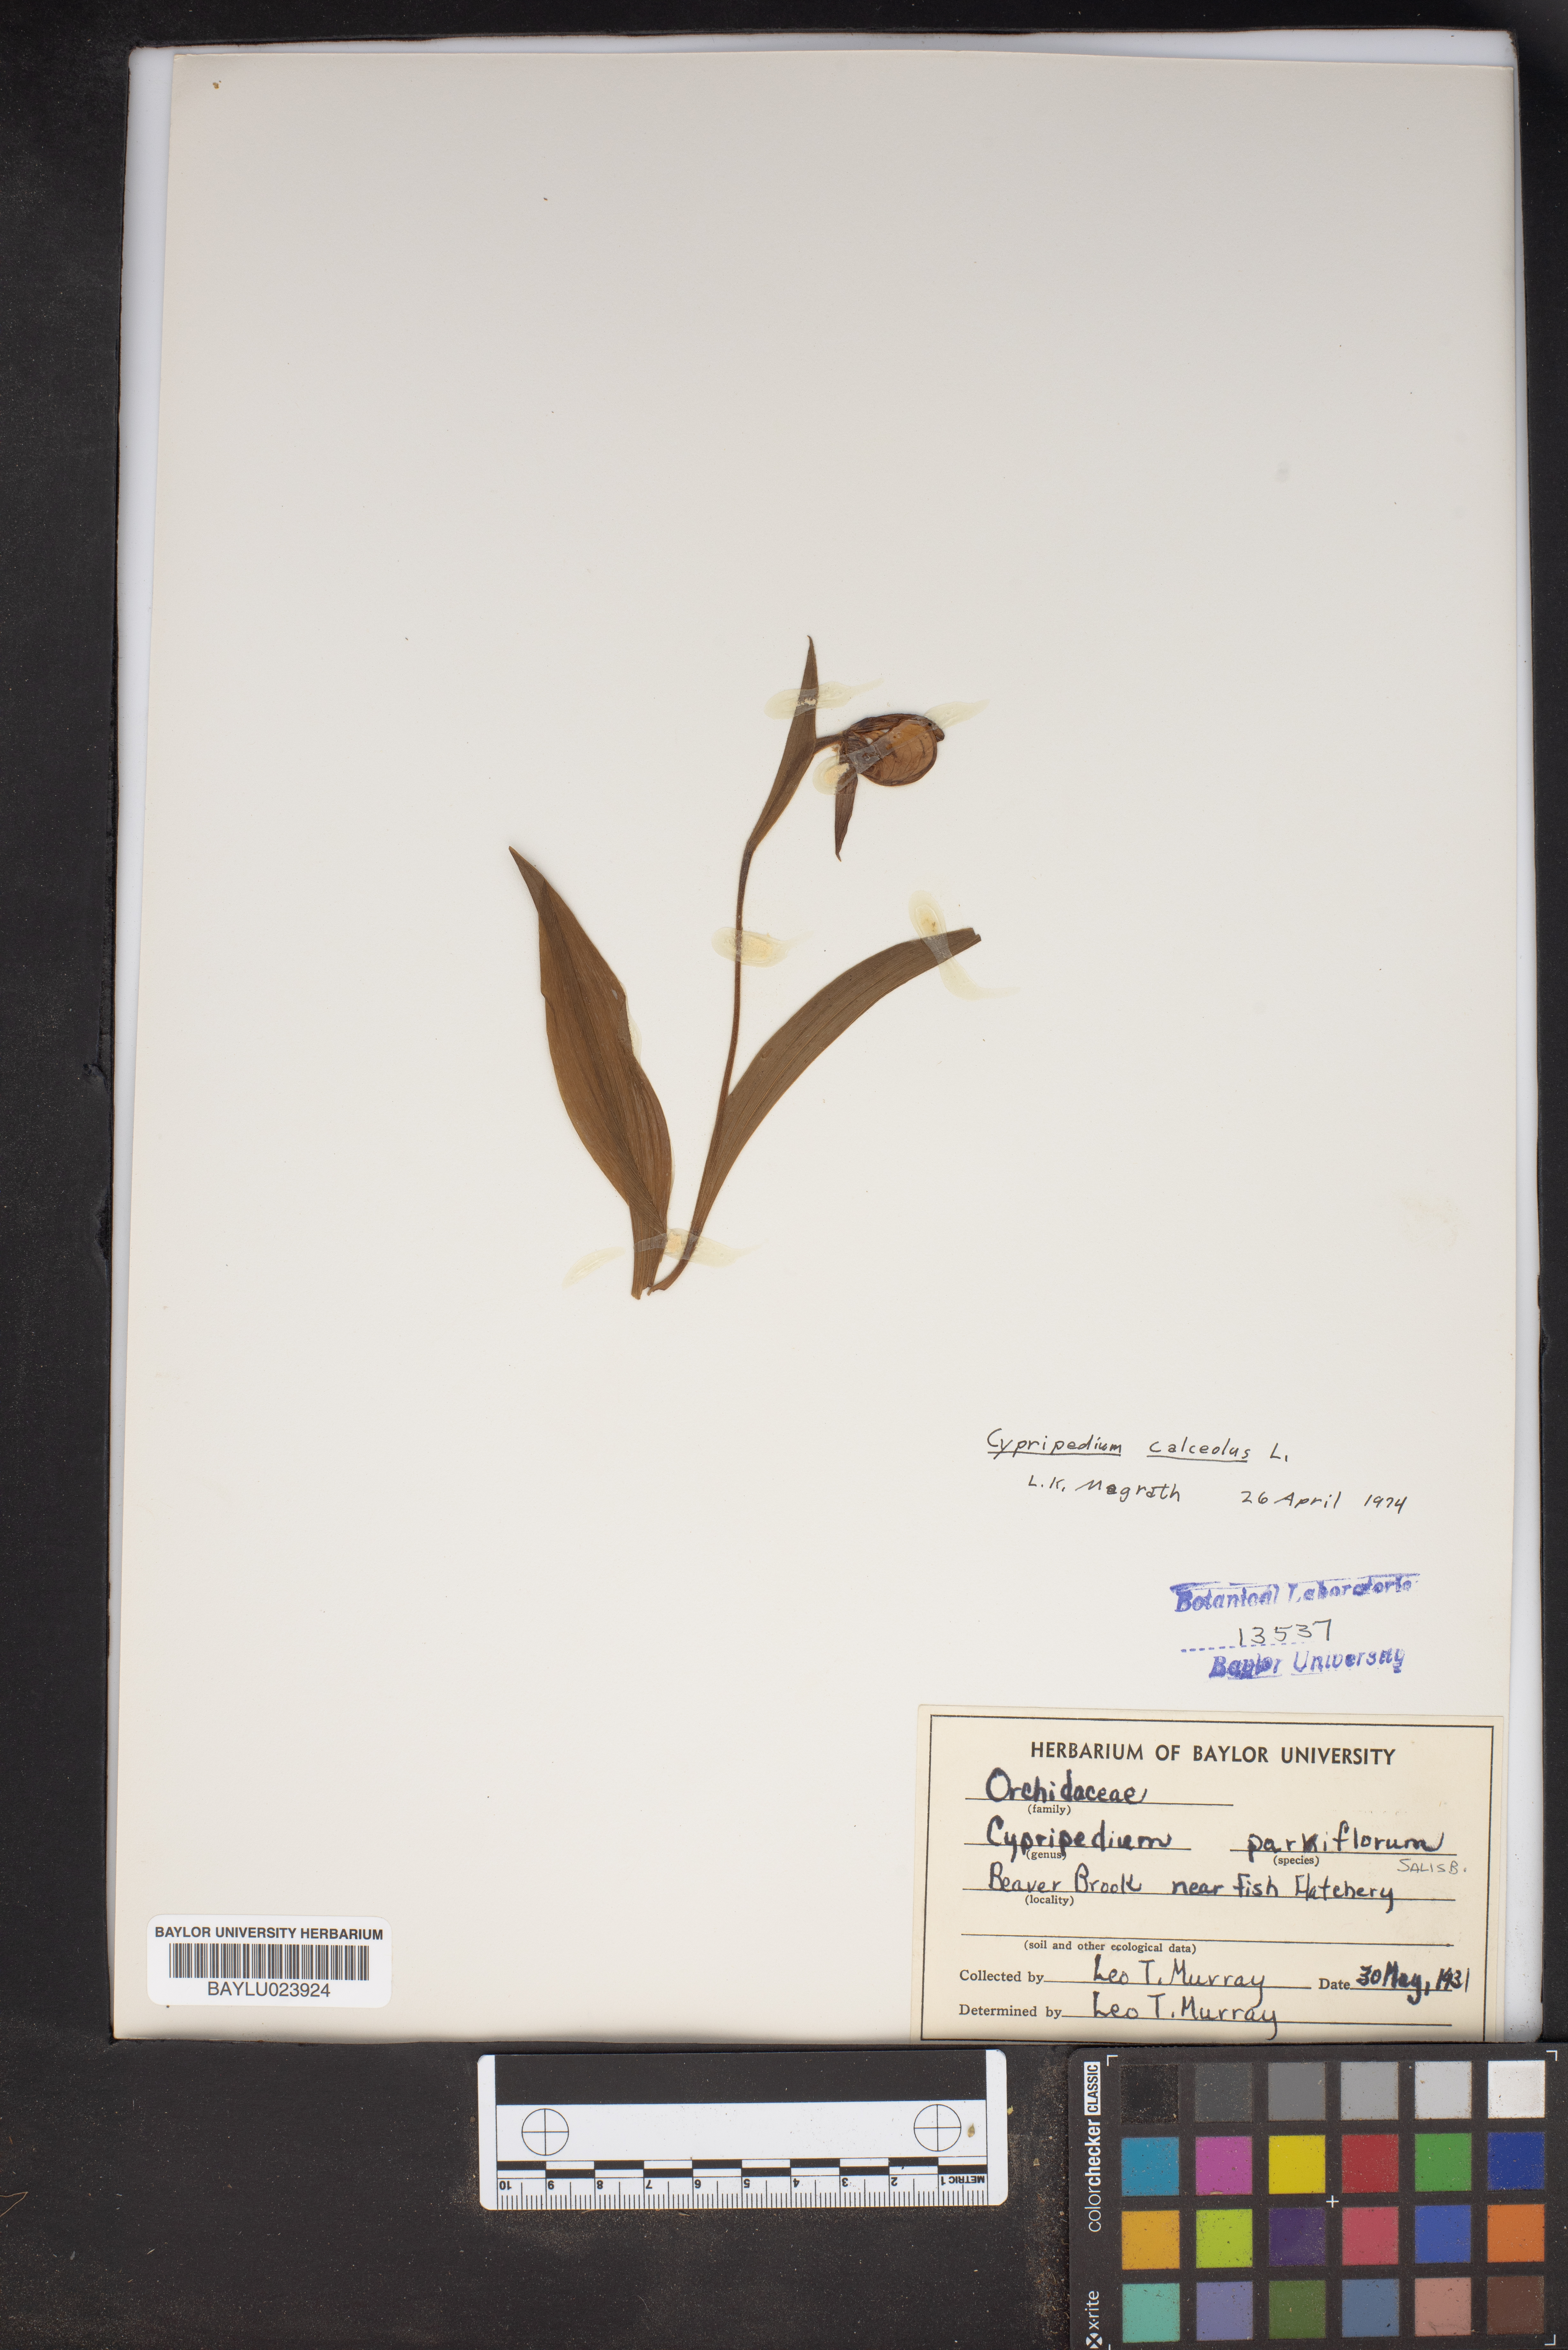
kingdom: Plantae
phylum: Tracheophyta
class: Liliopsida
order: Asparagales
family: Orchidaceae
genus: Cypripedium
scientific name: Cypripedium calceolus
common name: Lady's-slipper
